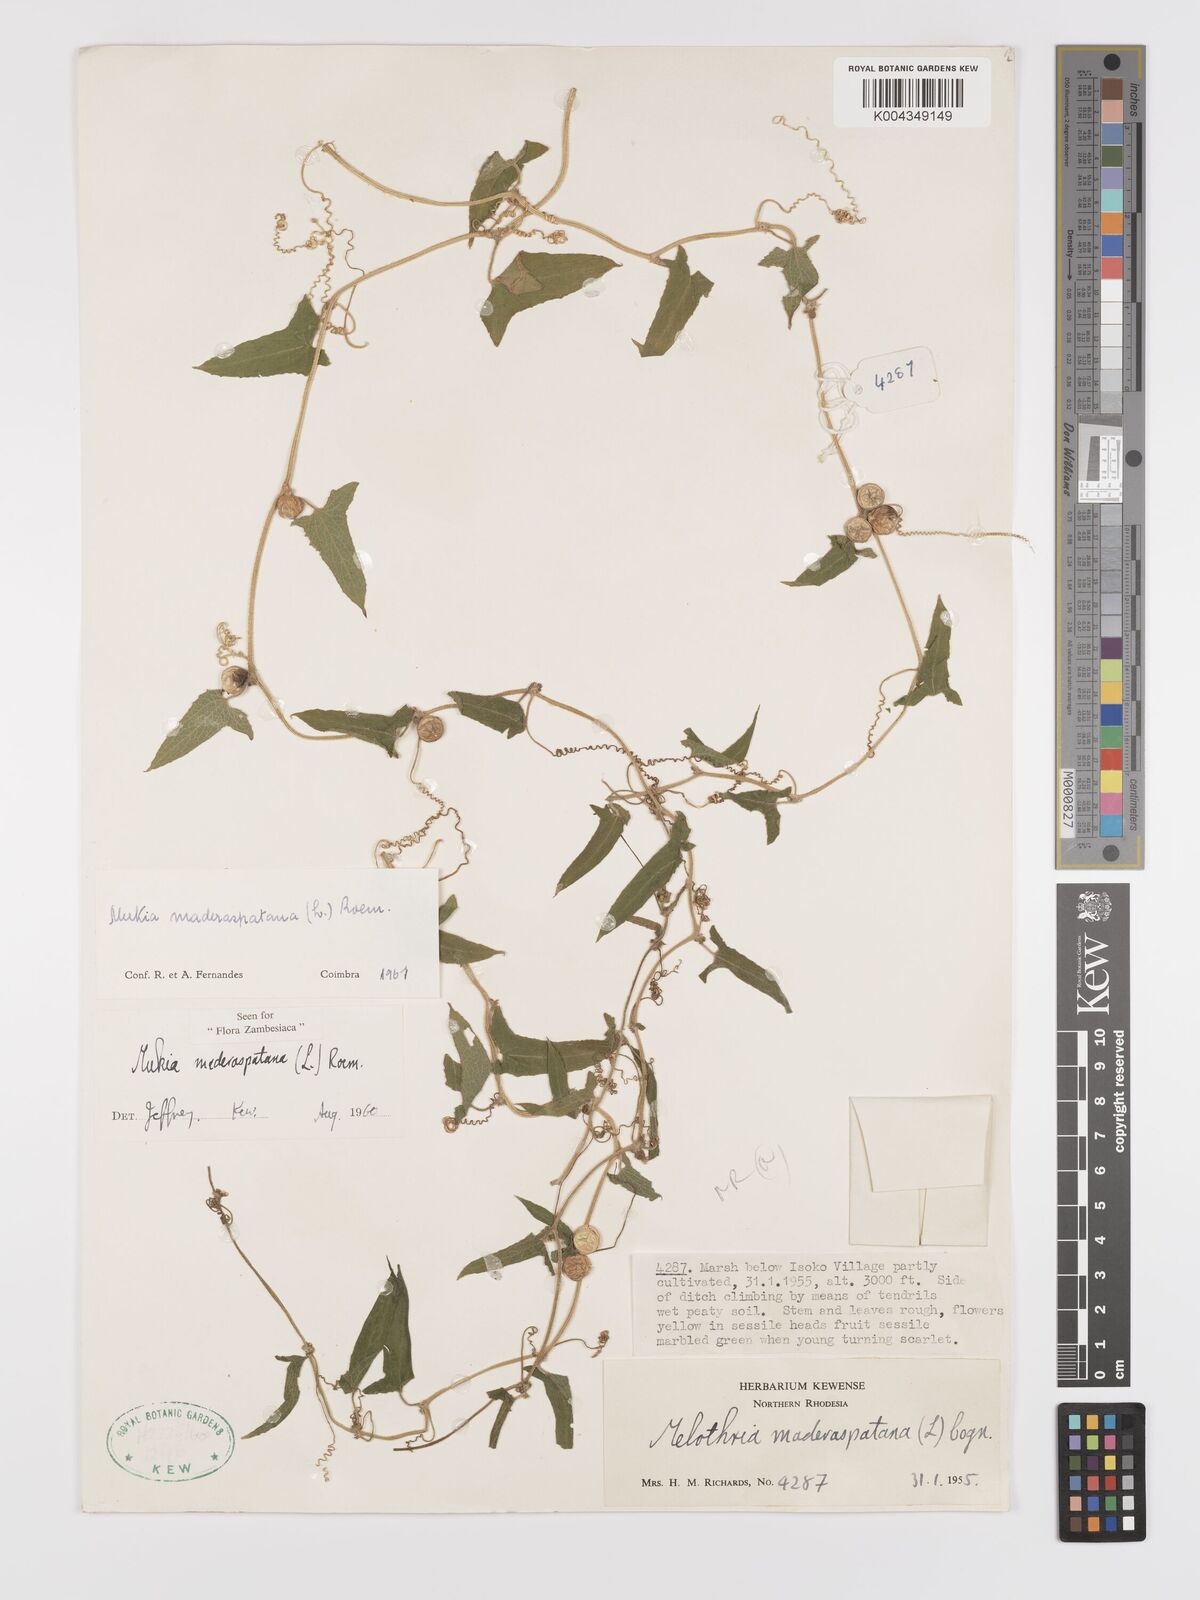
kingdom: Plantae
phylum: Tracheophyta
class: Magnoliopsida
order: Cucurbitales
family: Cucurbitaceae
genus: Cucumis
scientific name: Cucumis maderaspatanus
